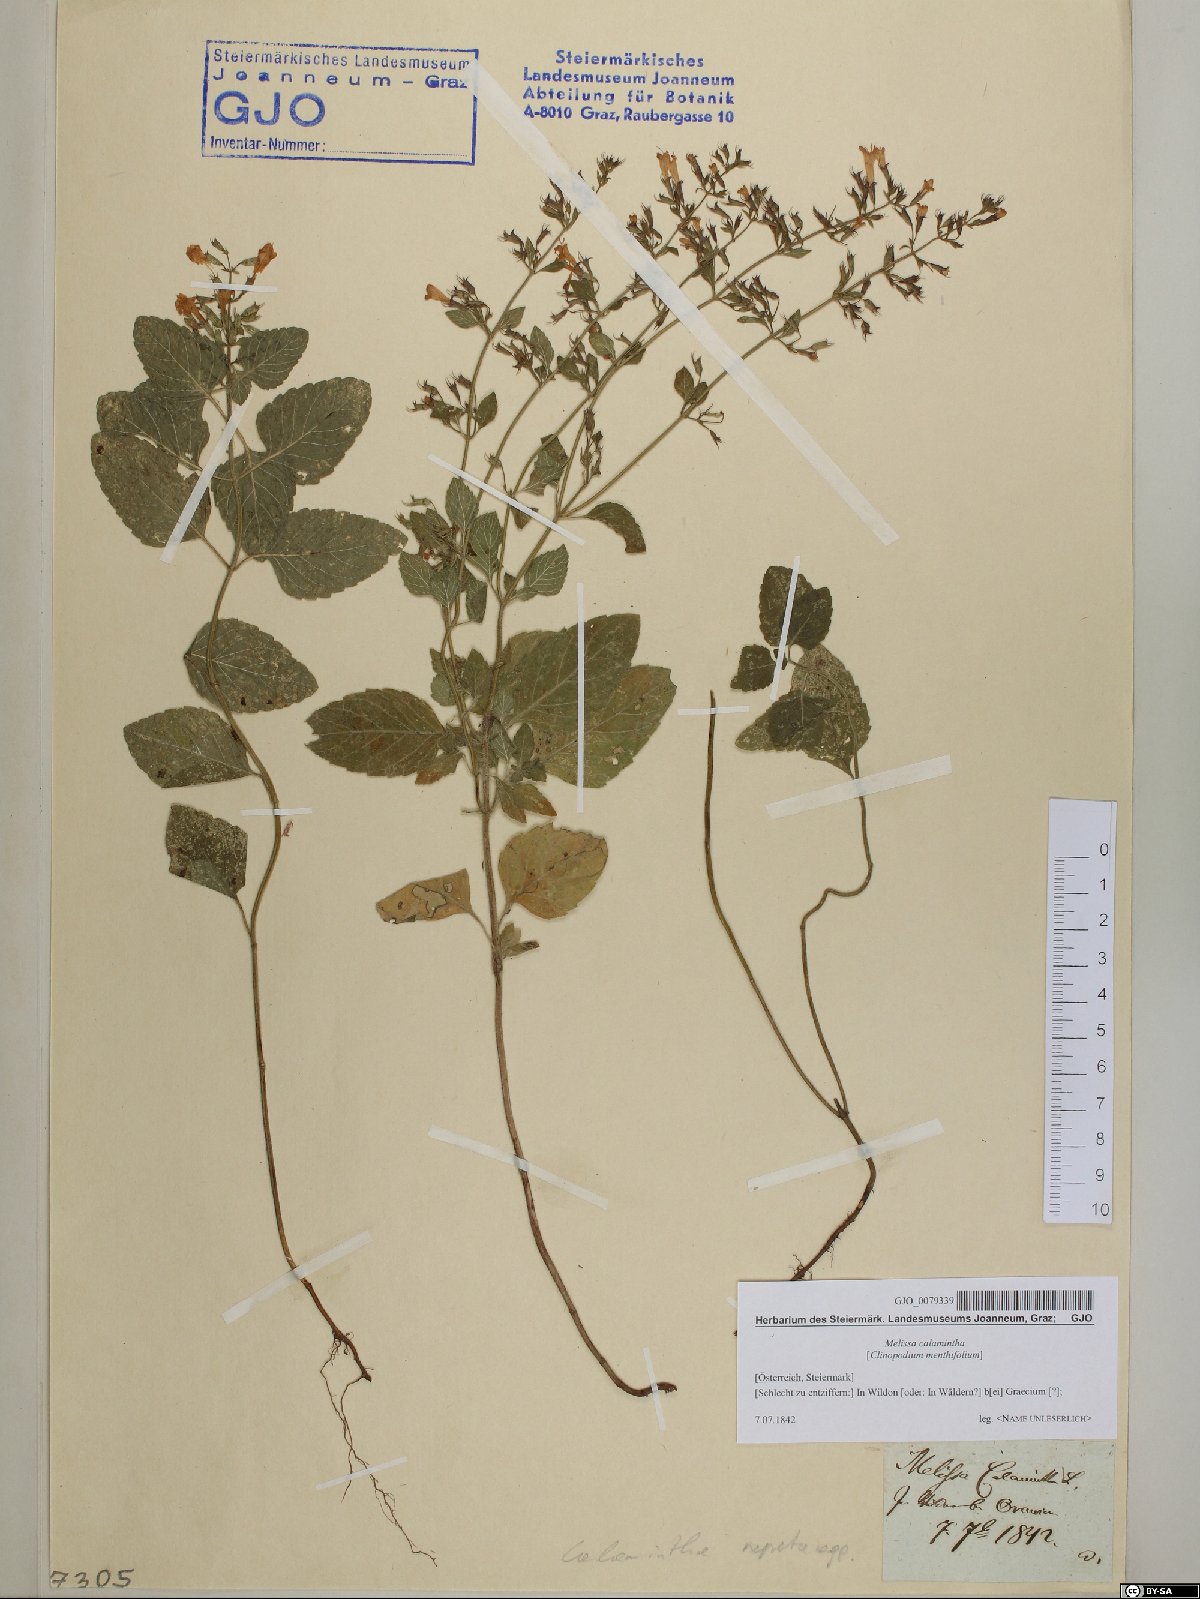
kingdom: Plantae
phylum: Tracheophyta
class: Magnoliopsida
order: Lamiales
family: Lamiaceae
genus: Clinopodium
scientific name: Clinopodium nepeta
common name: Lesser calamint
